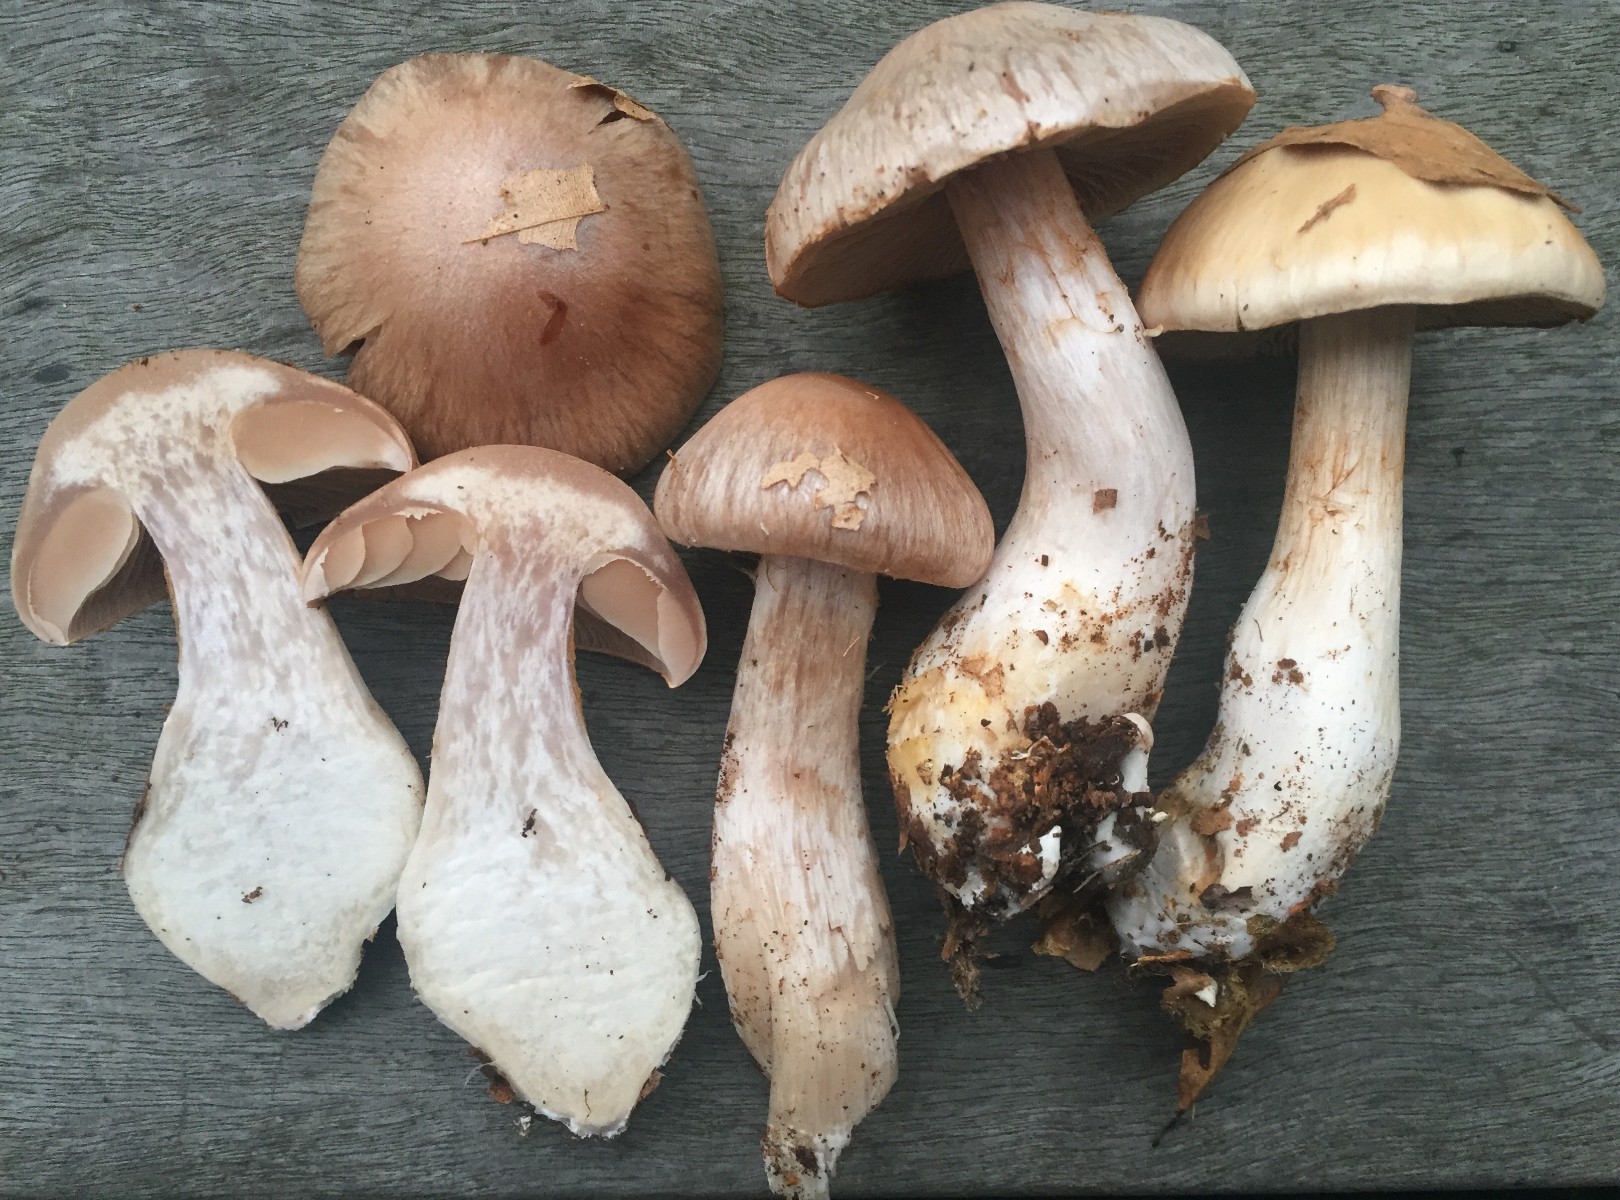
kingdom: Fungi
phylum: Basidiomycota
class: Agaricomycetes
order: Agaricales
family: Cortinariaceae
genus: Cortinarius
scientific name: Cortinarius turgidus
